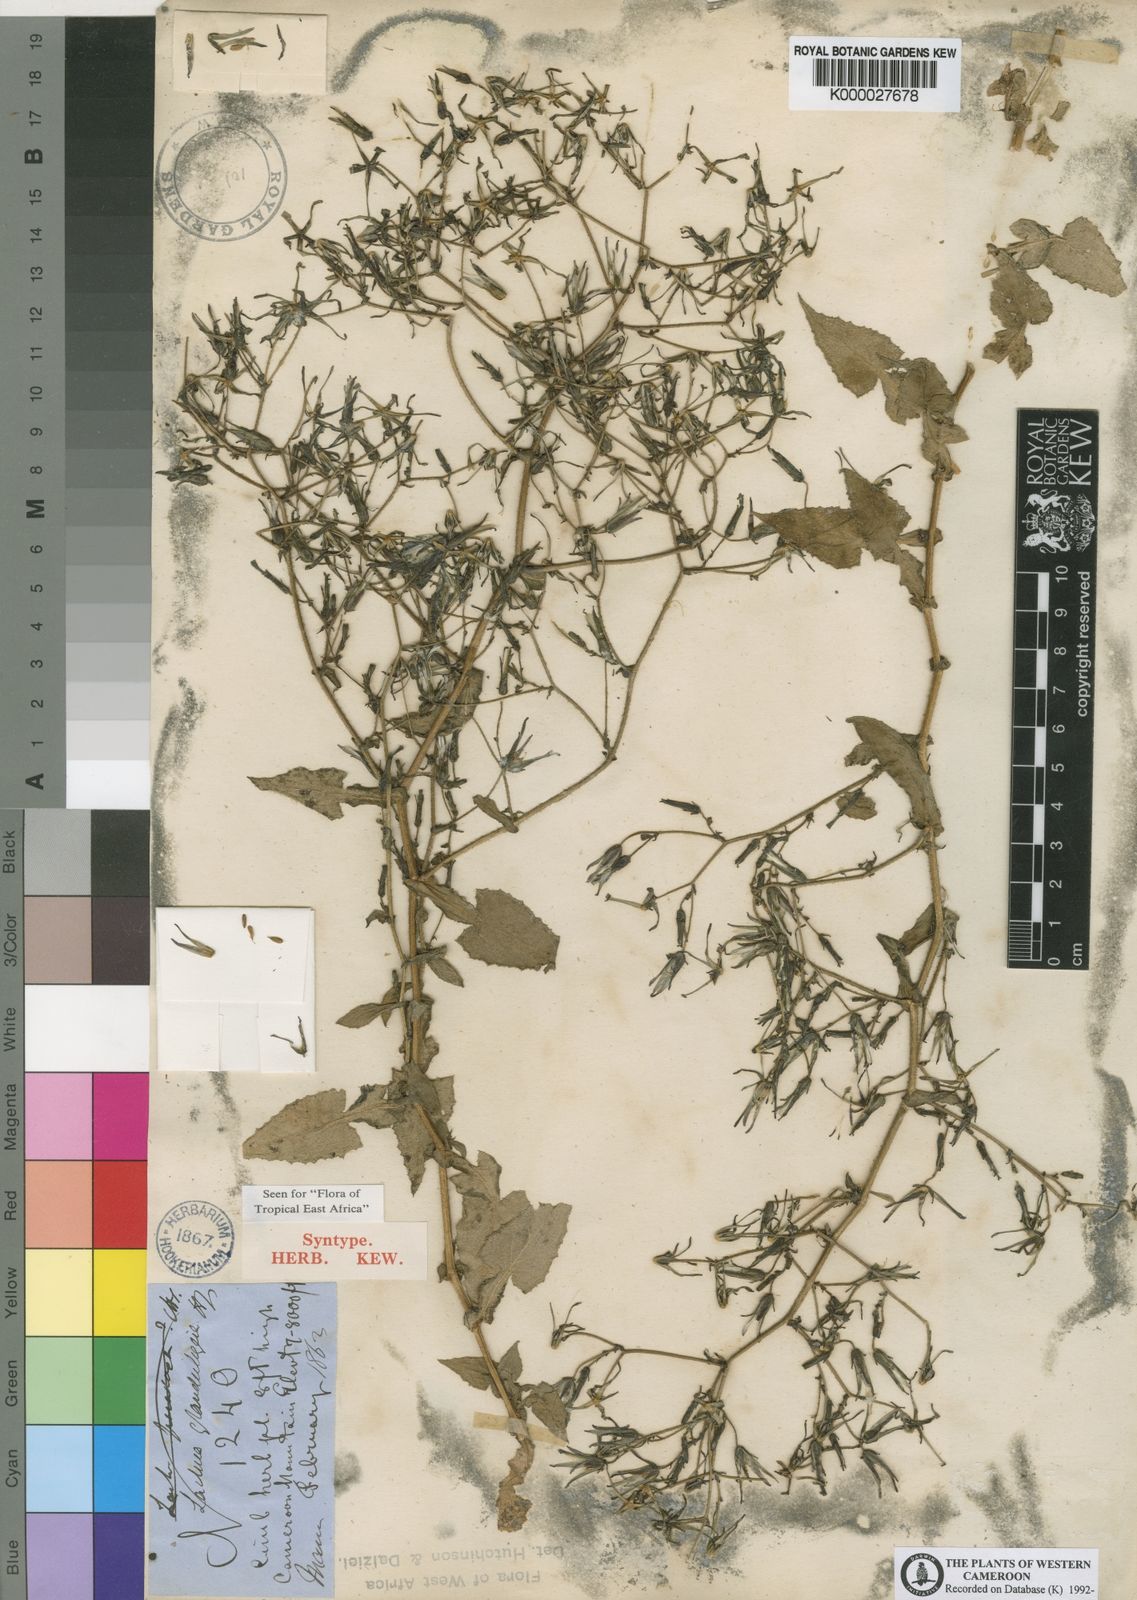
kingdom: Plantae
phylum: Tracheophyta
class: Magnoliopsida
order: Asterales
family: Asteraceae
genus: Lactuca
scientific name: Lactuca glandulifera
